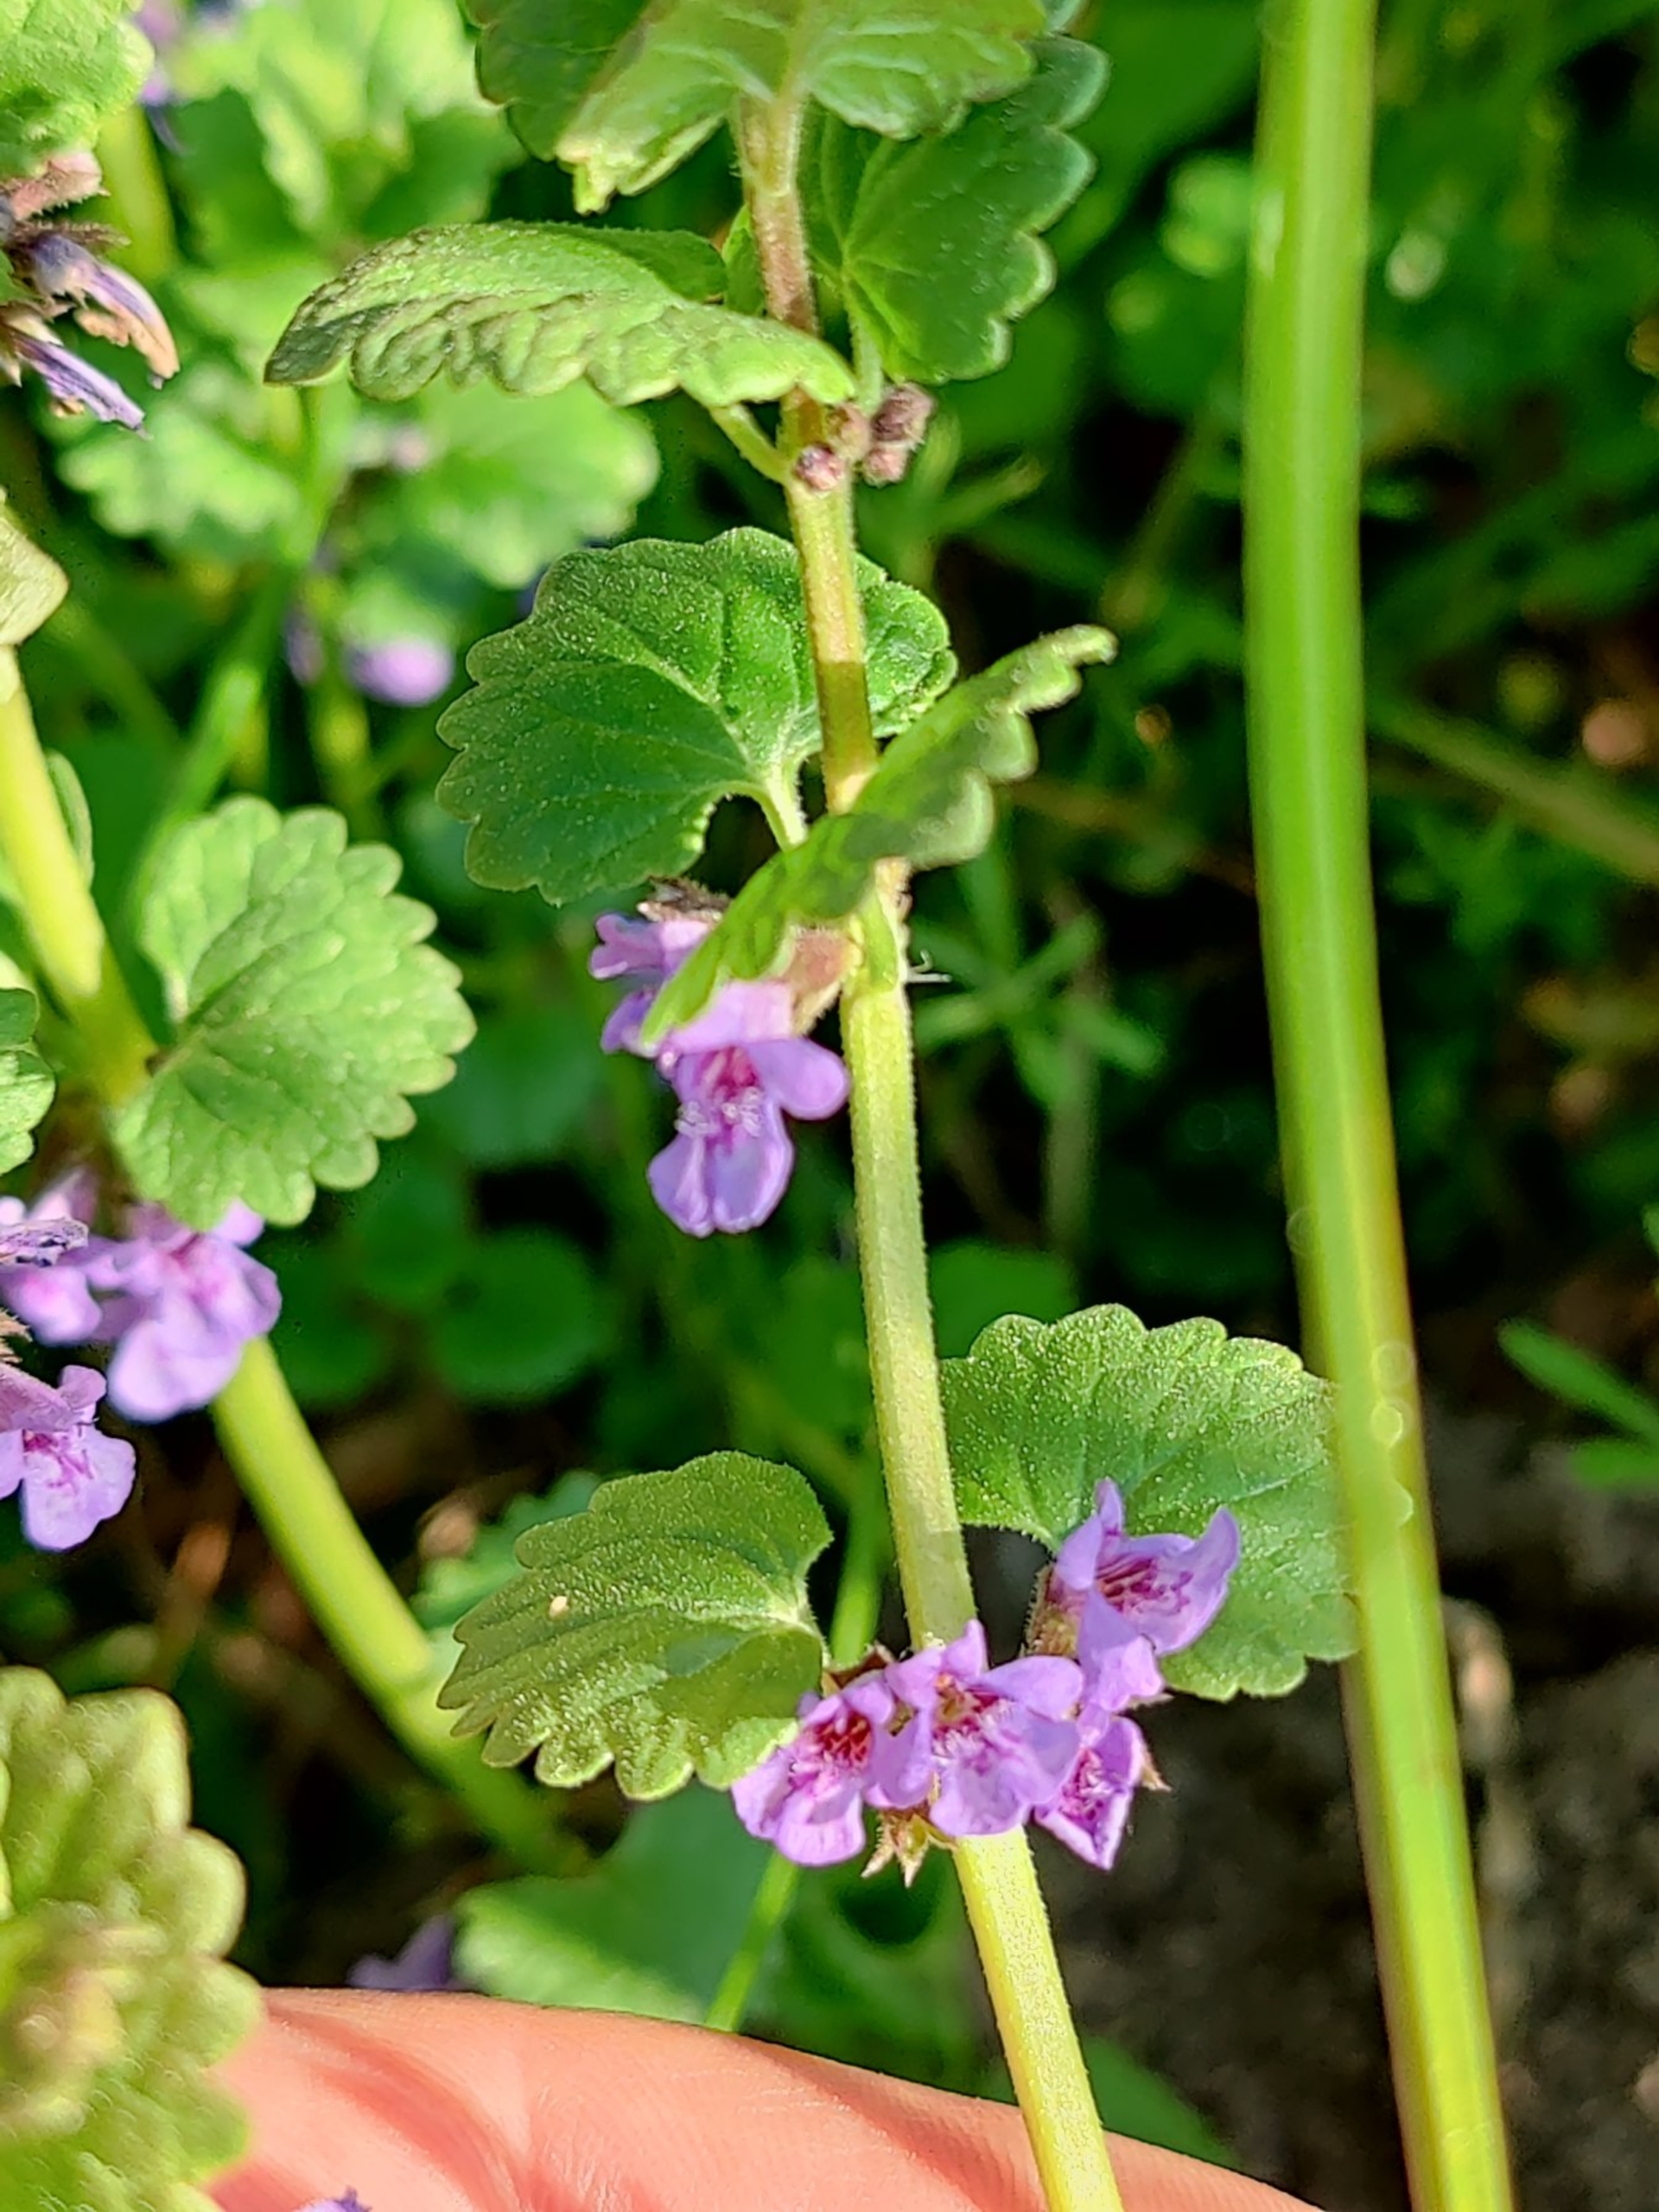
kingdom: Plantae
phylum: Tracheophyta
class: Magnoliopsida
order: Lamiales
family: Lamiaceae
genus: Glechoma
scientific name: Glechoma hederacea
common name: Korsknap
